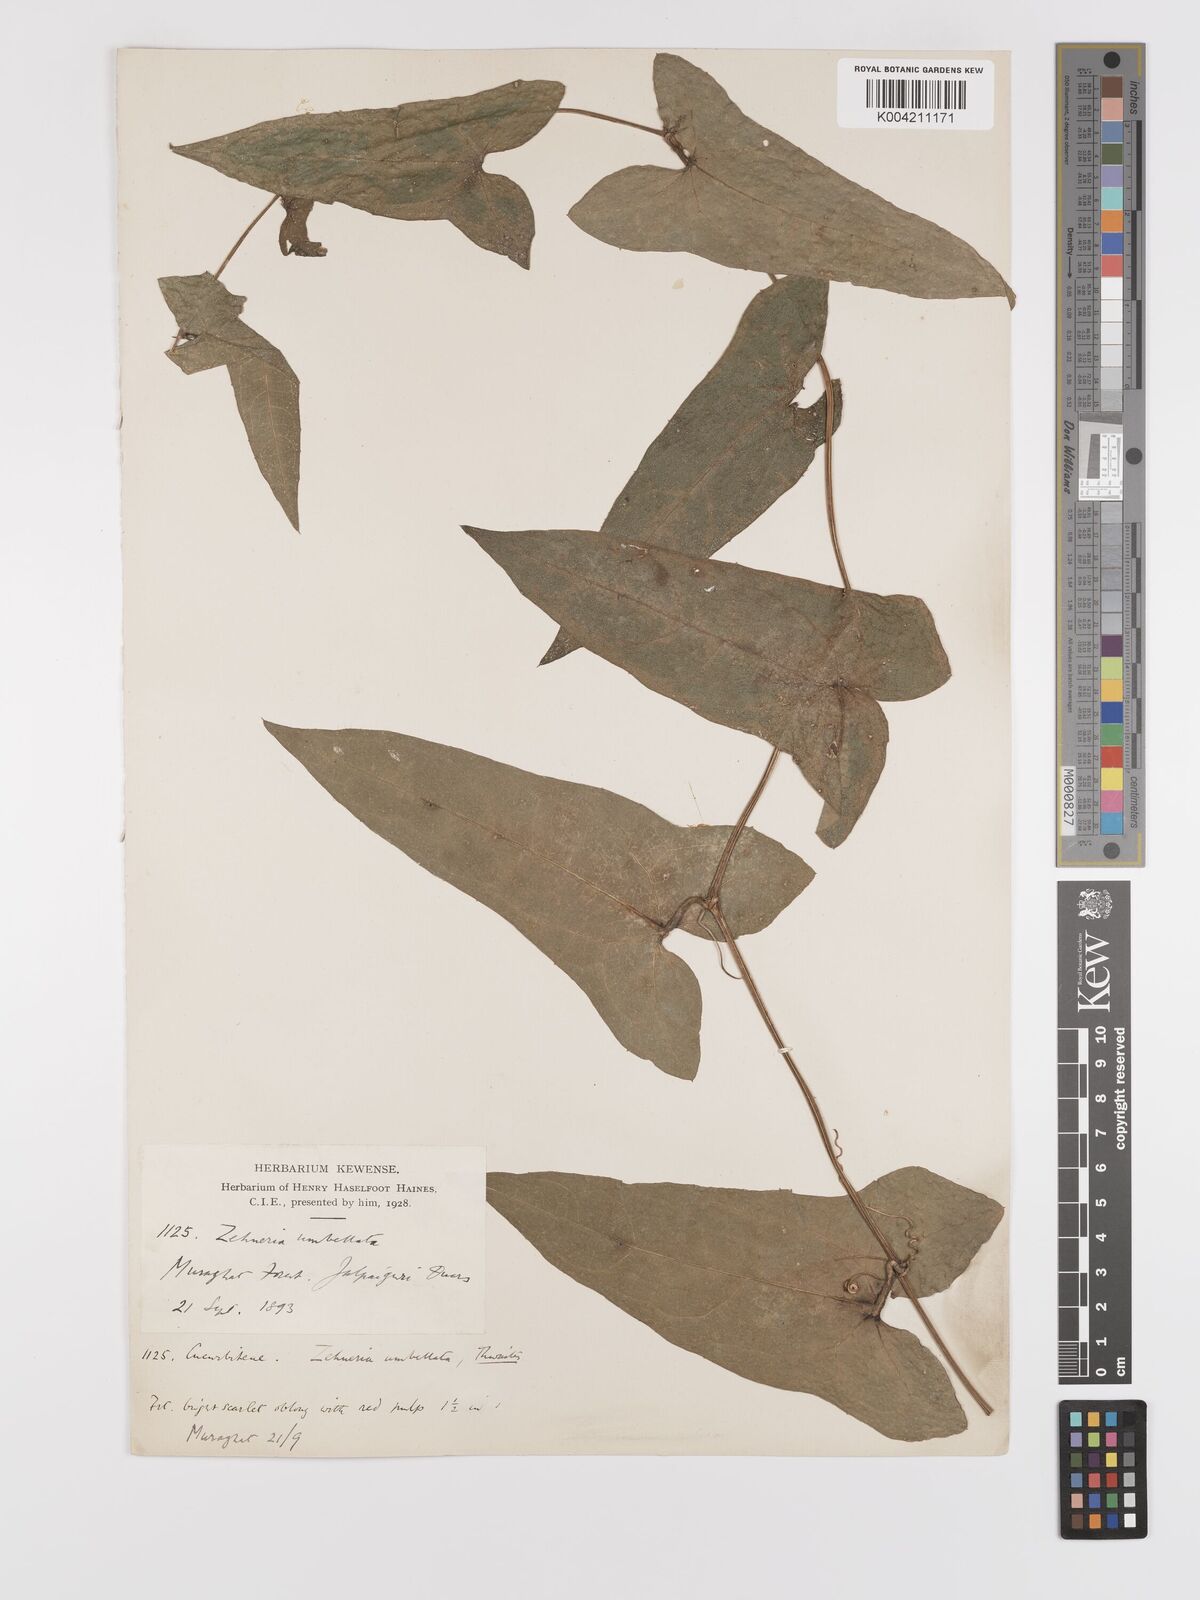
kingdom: Plantae
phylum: Tracheophyta
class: Magnoliopsida
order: Cucurbitales
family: Cucurbitaceae
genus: Solena
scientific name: Solena amplexicaulis
